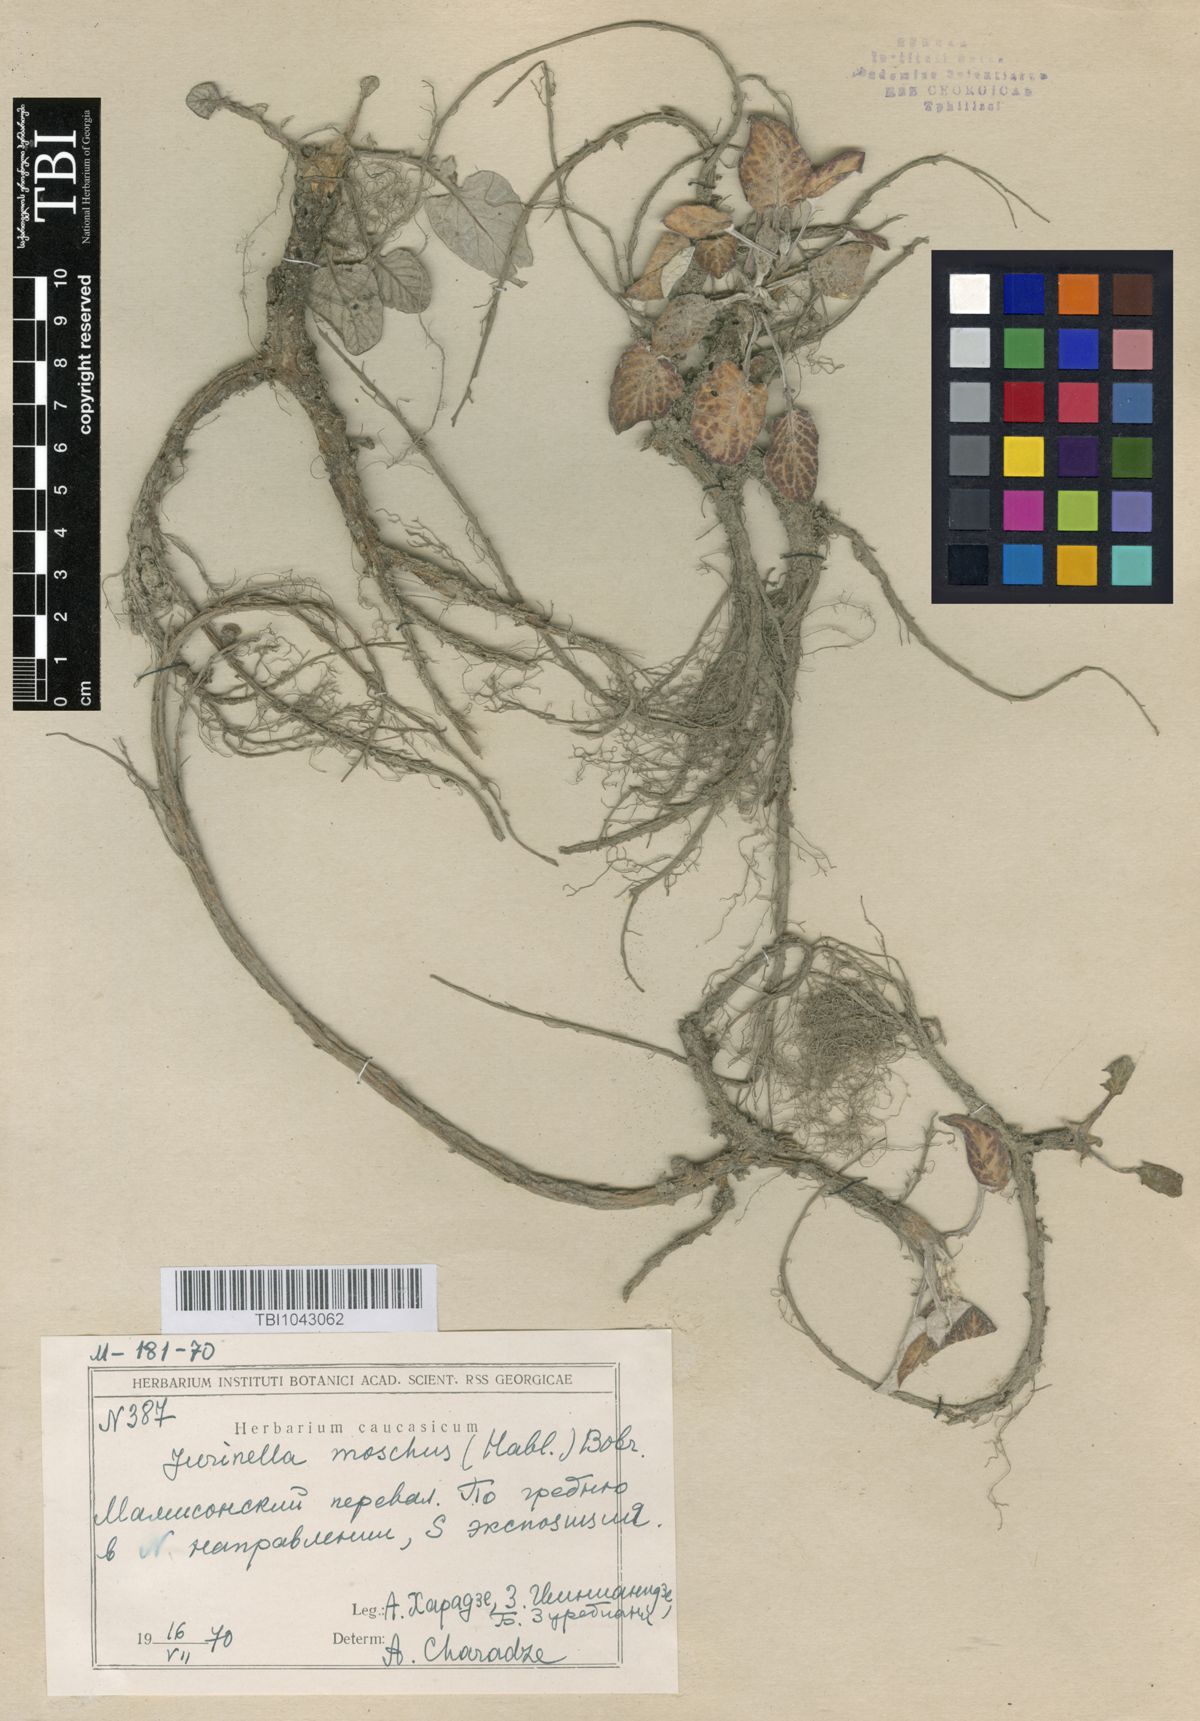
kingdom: Plantae
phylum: Tracheophyta
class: Magnoliopsida
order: Asterales
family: Asteraceae
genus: Jurinea
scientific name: Jurinea moschus
